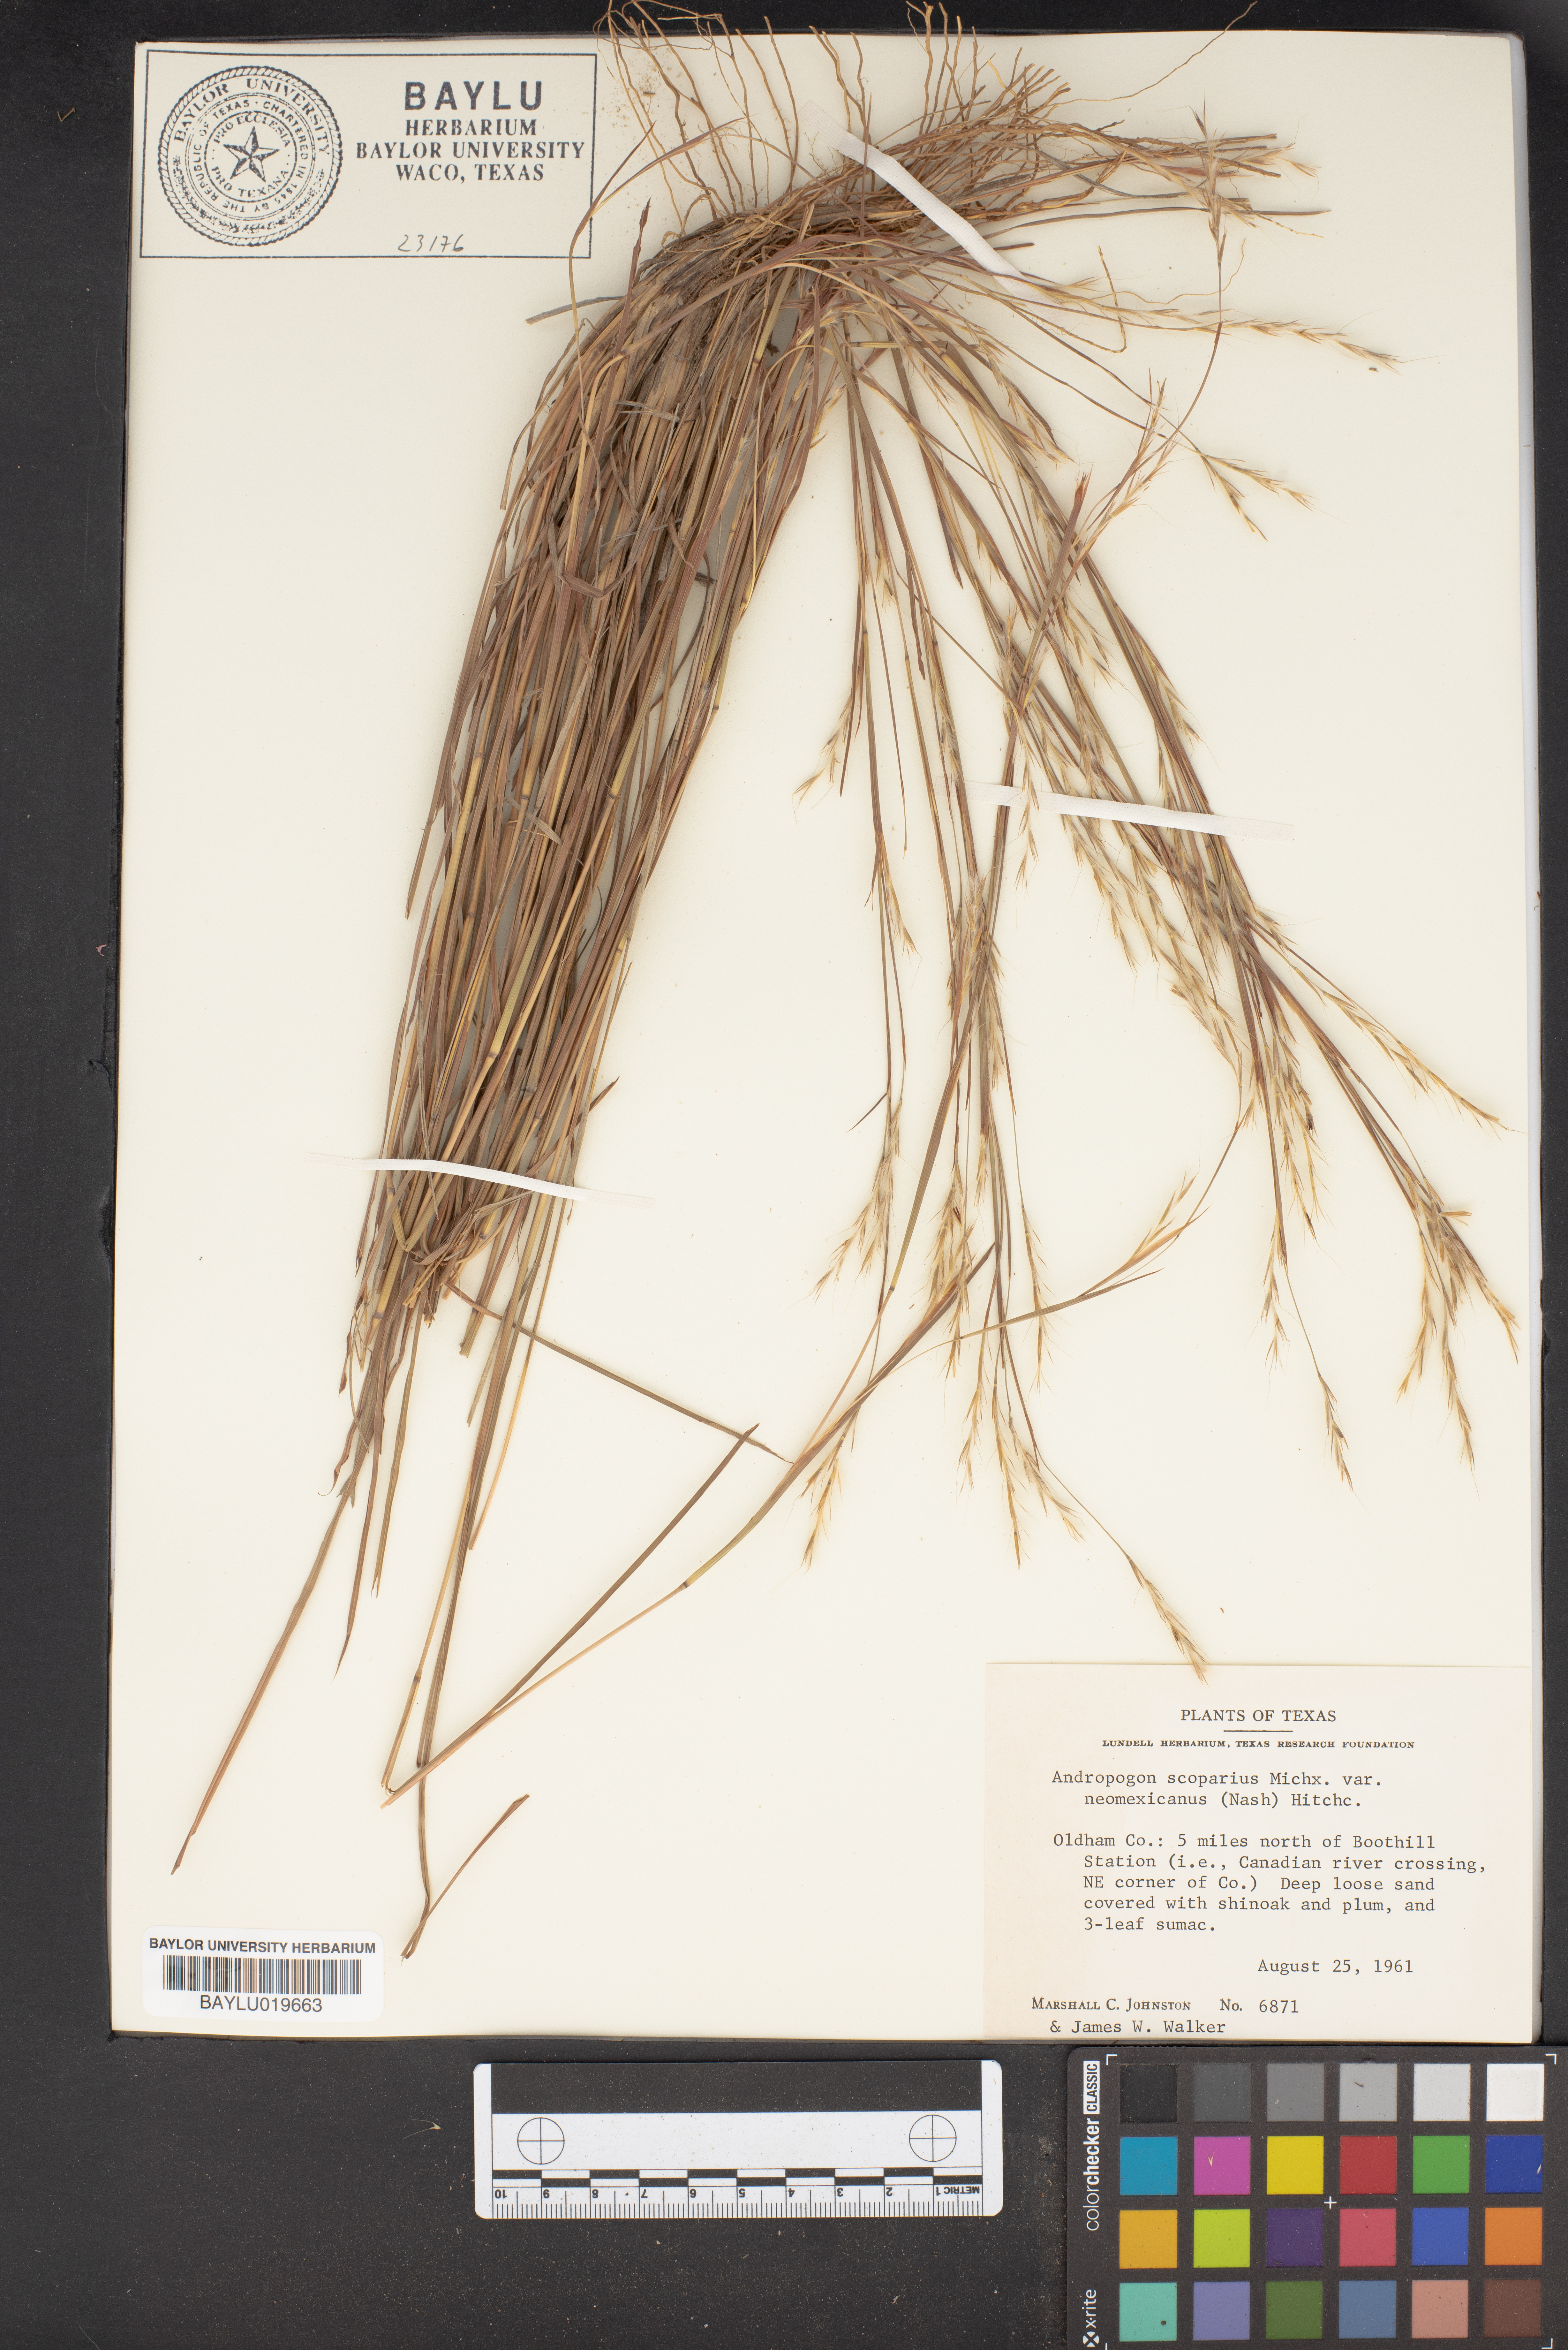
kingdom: Plantae
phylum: Tracheophyta
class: Liliopsida
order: Poales
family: Poaceae
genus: Schizachyrium
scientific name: Schizachyrium scoparium
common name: Little bluestem
